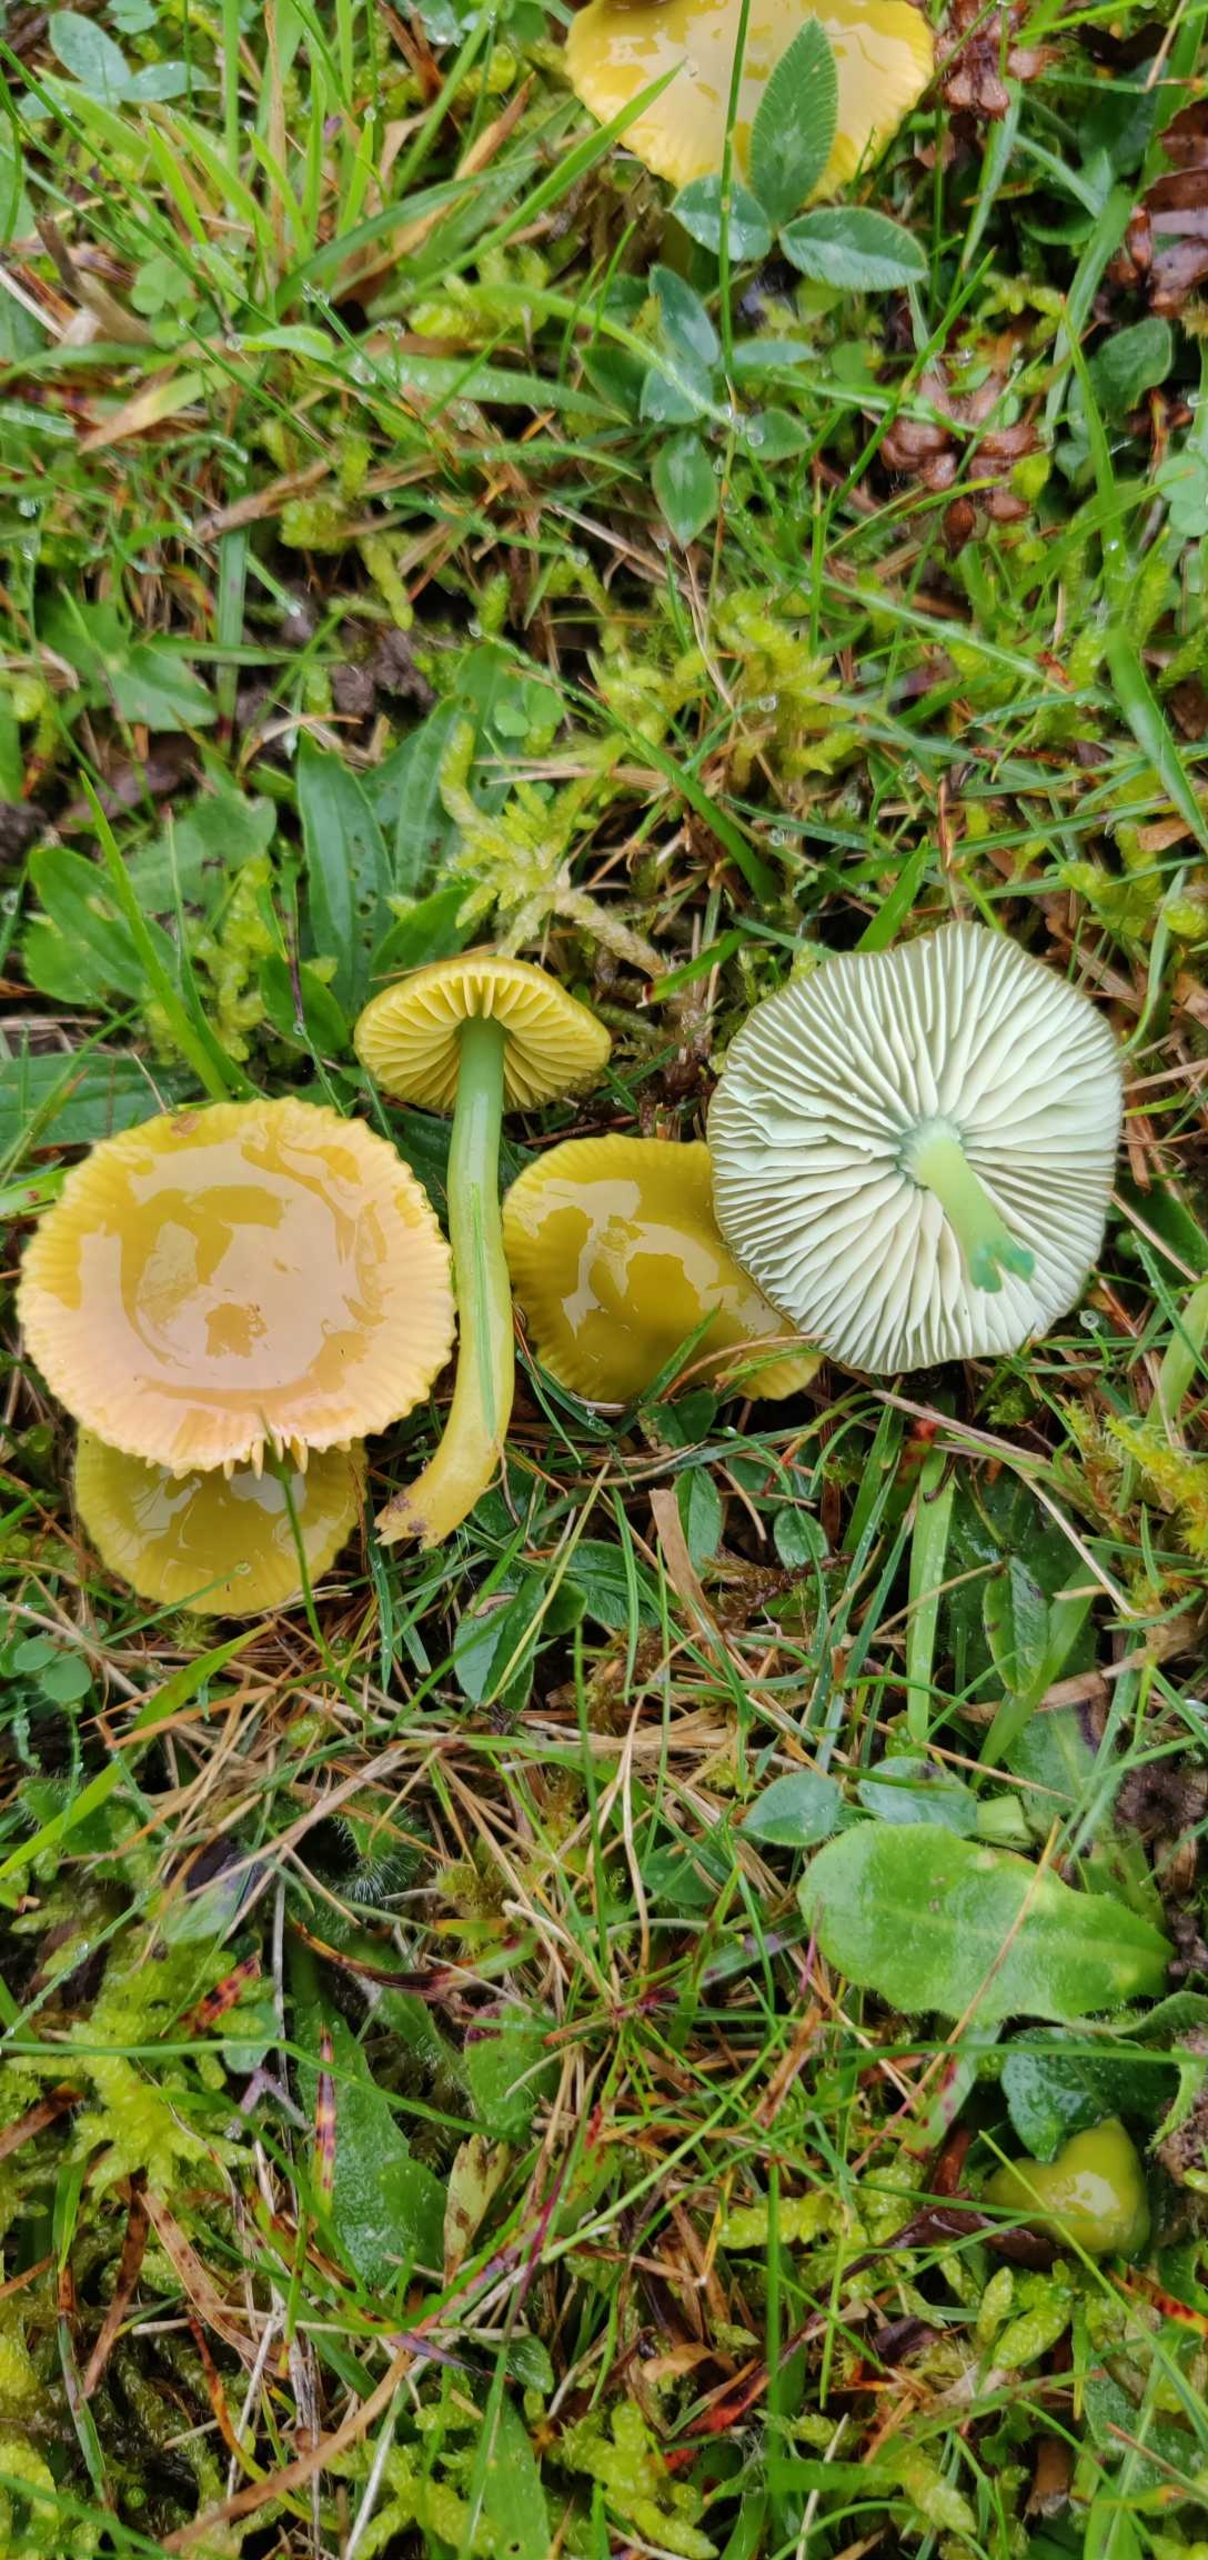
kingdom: Fungi
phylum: Basidiomycota
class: Agaricomycetes
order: Agaricales
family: Hygrophoraceae
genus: Gliophorus
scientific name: Gliophorus psittacinus
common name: Papegøje-vokshat
